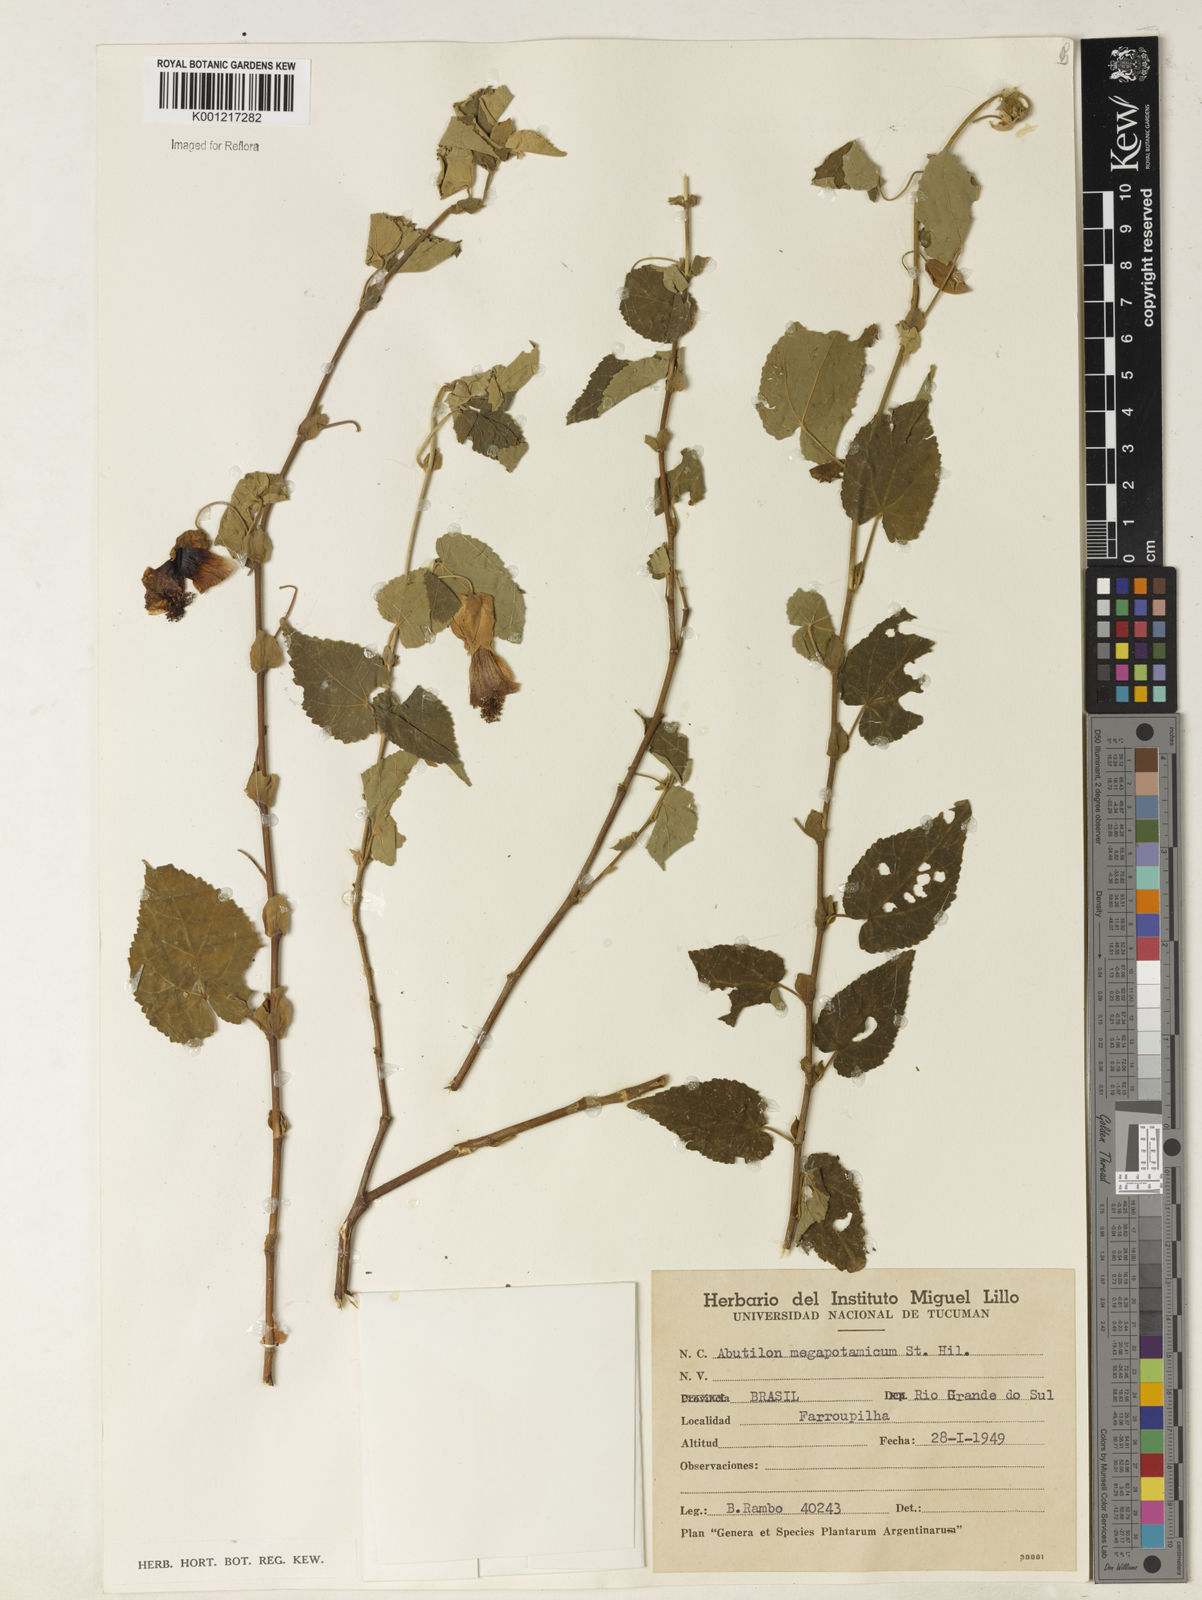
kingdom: Plantae
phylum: Tracheophyta
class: Magnoliopsida
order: Malvales
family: Malvaceae
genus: Callianthe
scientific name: Callianthe megapotamica
